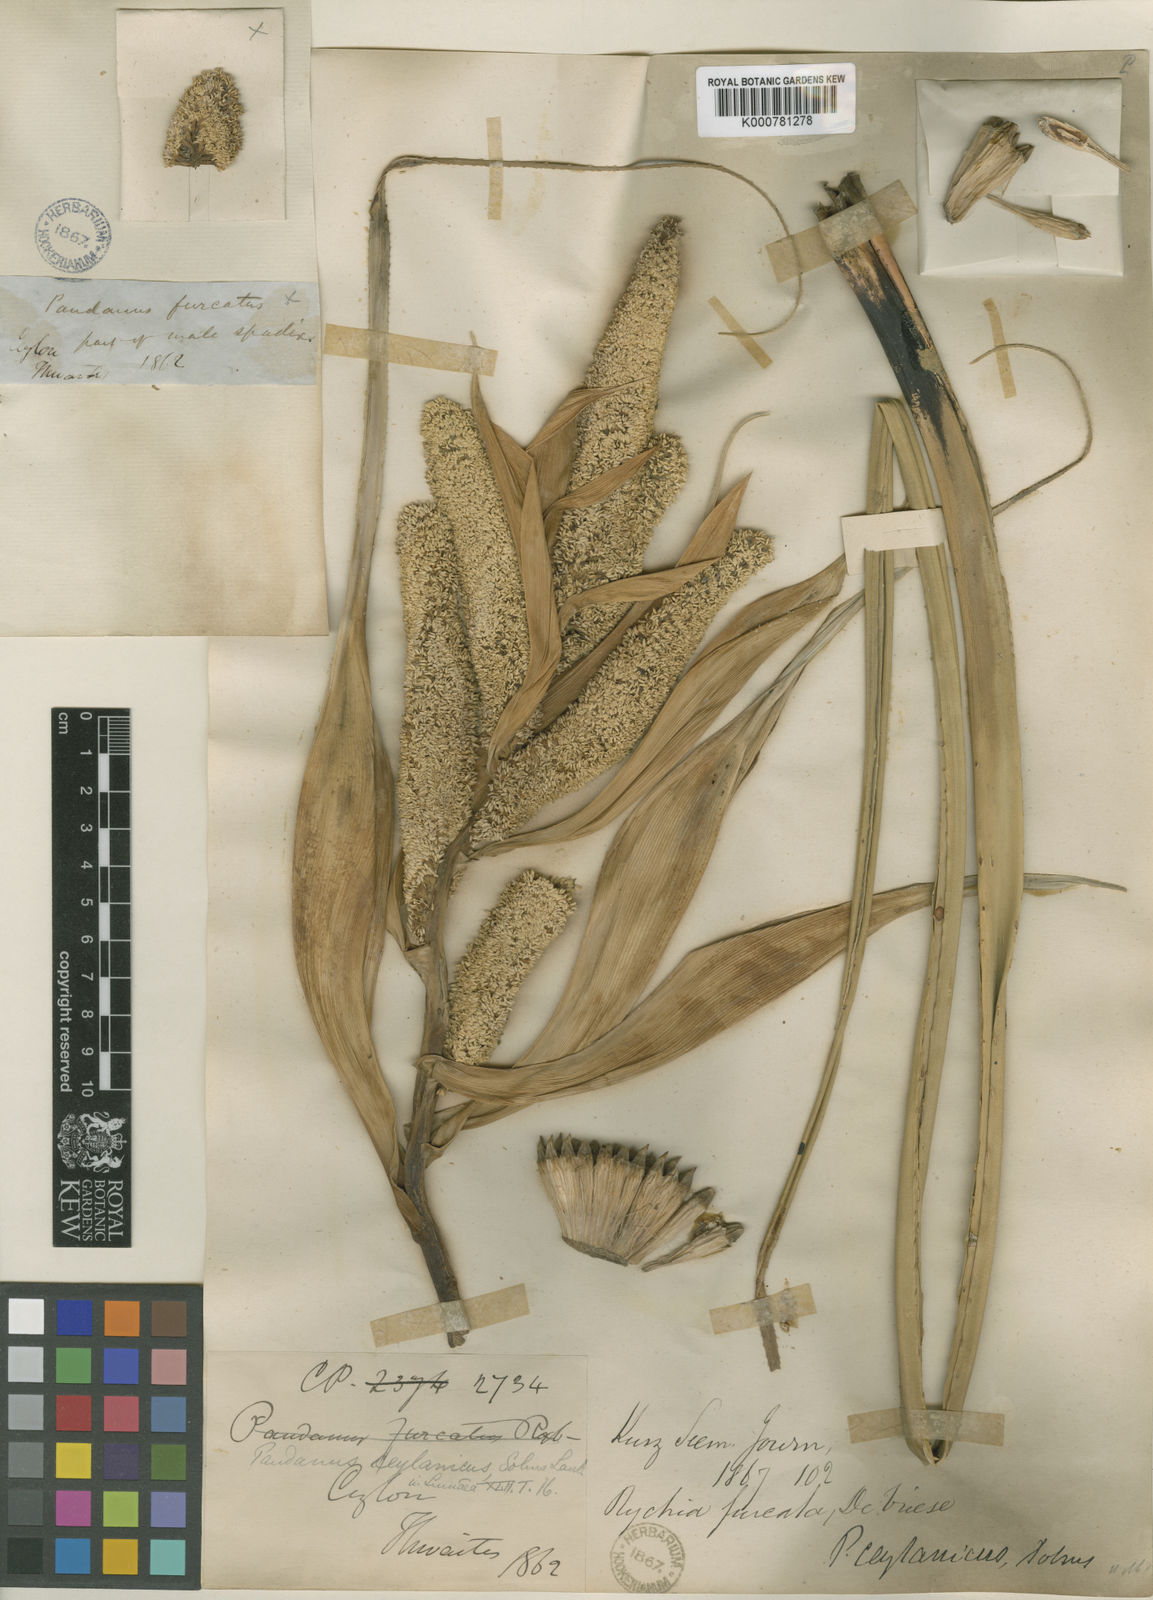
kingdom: Plantae
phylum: Tracheophyta
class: Liliopsida
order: Pandanales
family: Pandanaceae
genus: Pandanus
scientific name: Pandanus ceylanicus
